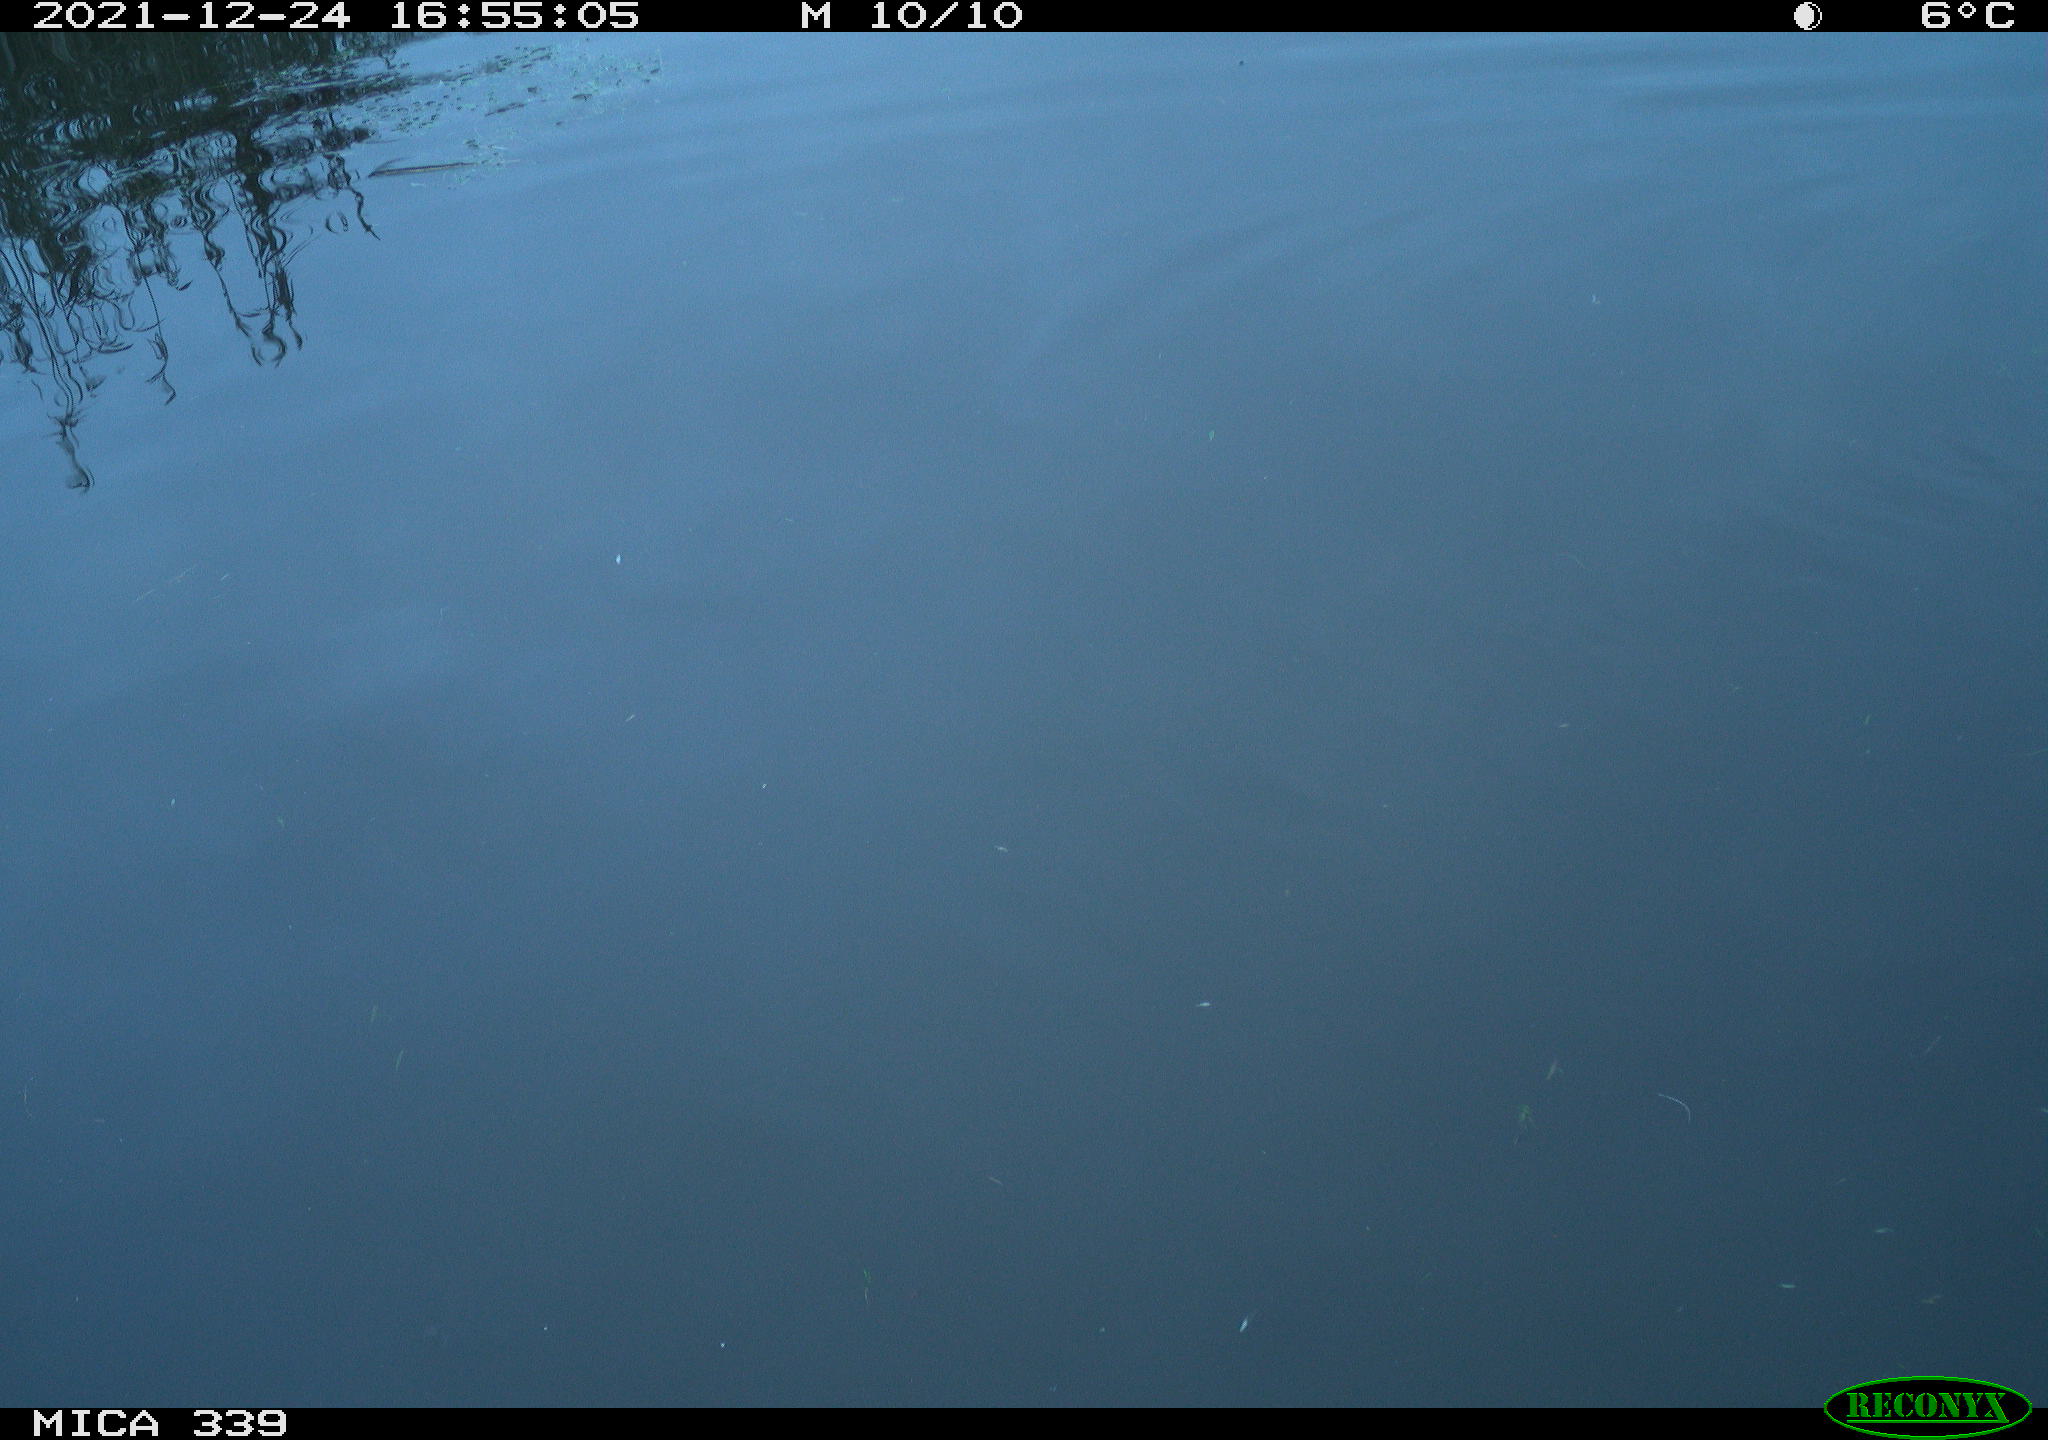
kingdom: Animalia
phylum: Chordata
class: Aves
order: Gruiformes
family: Rallidae
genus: Gallinula
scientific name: Gallinula chloropus
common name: Common moorhen
